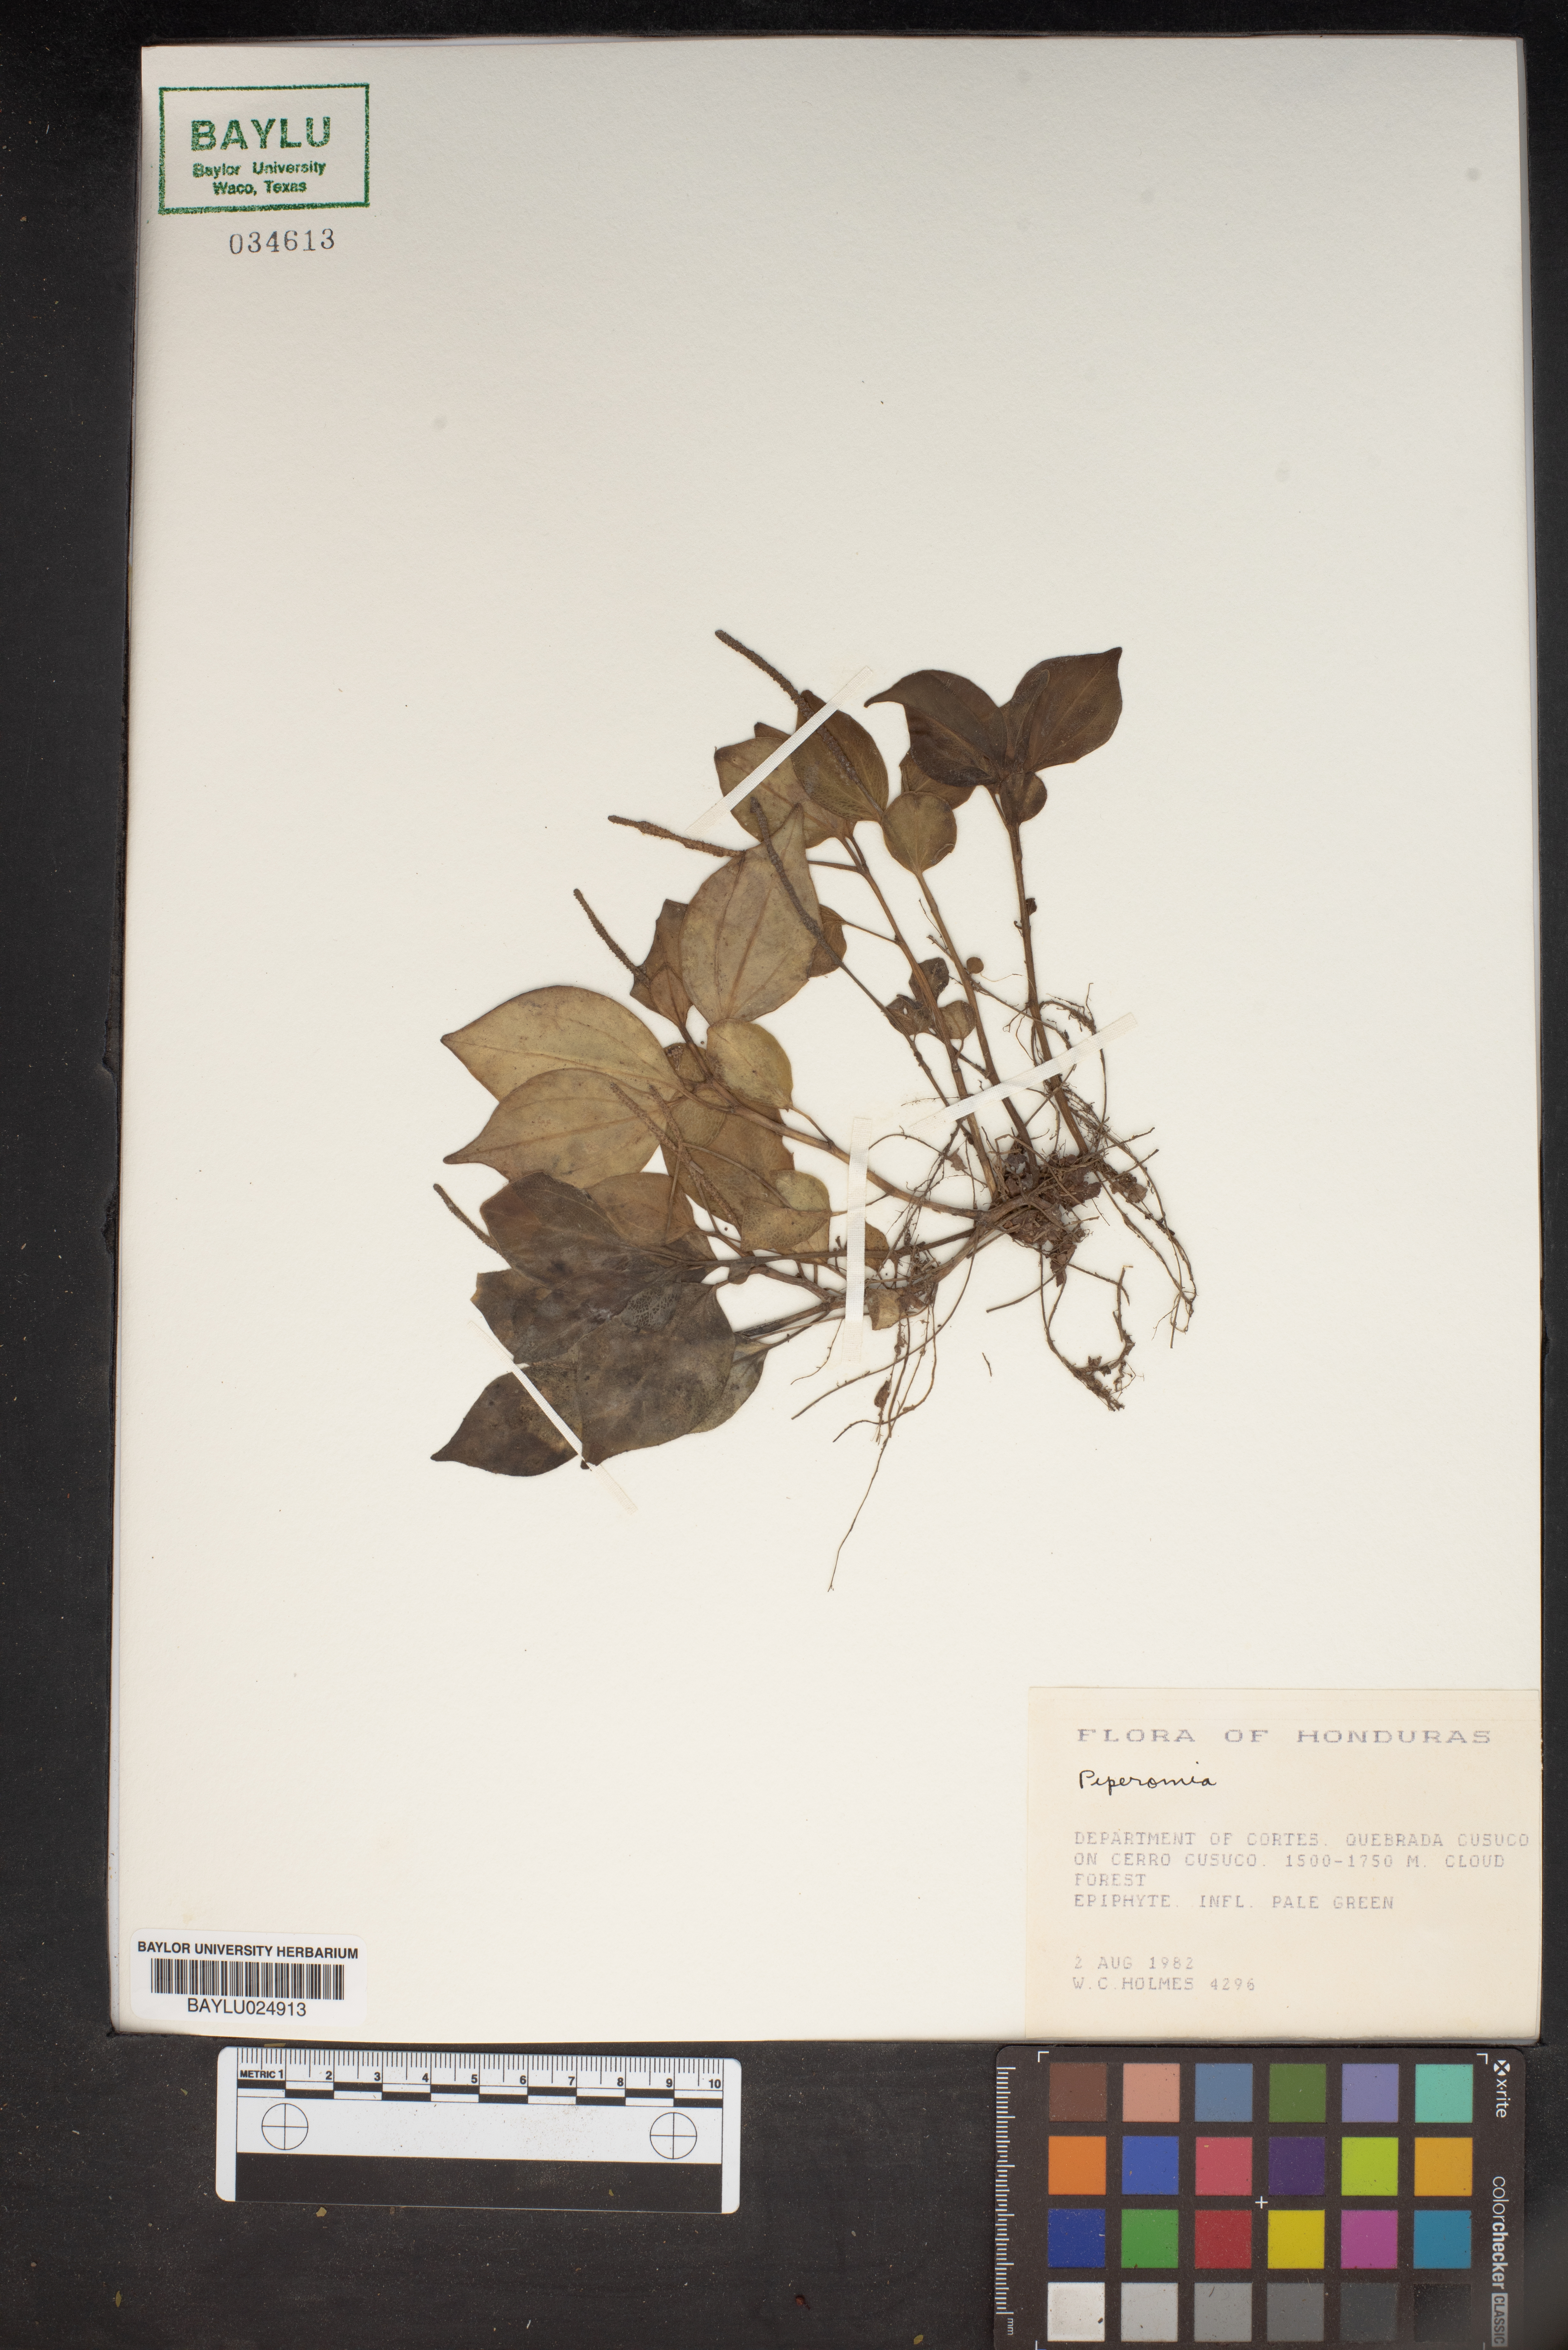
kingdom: Plantae
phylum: Tracheophyta
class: Magnoliopsida
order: Piperales
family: Piperaceae
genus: Peperomia
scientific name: Peperomia
